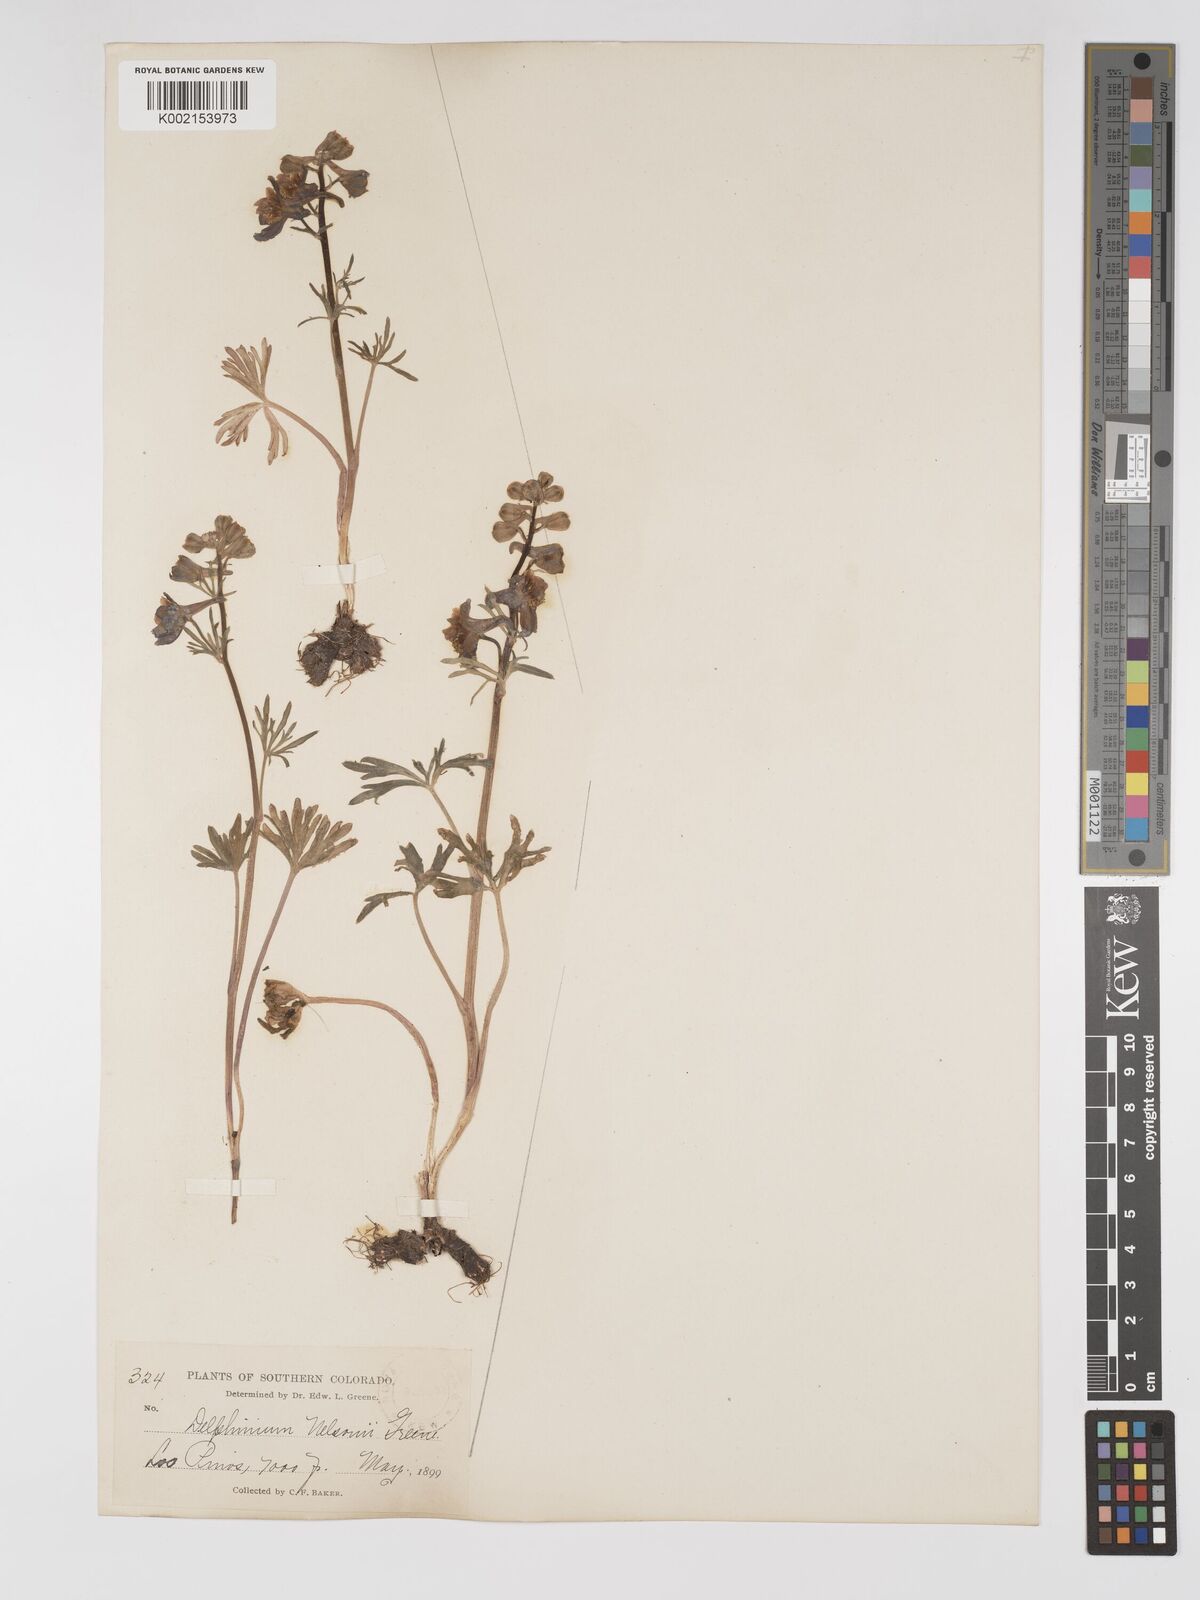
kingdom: Plantae
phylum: Tracheophyta
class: Magnoliopsida
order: Ranunculales
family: Ranunculaceae
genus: Delphinium
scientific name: Delphinium nuttallianum
